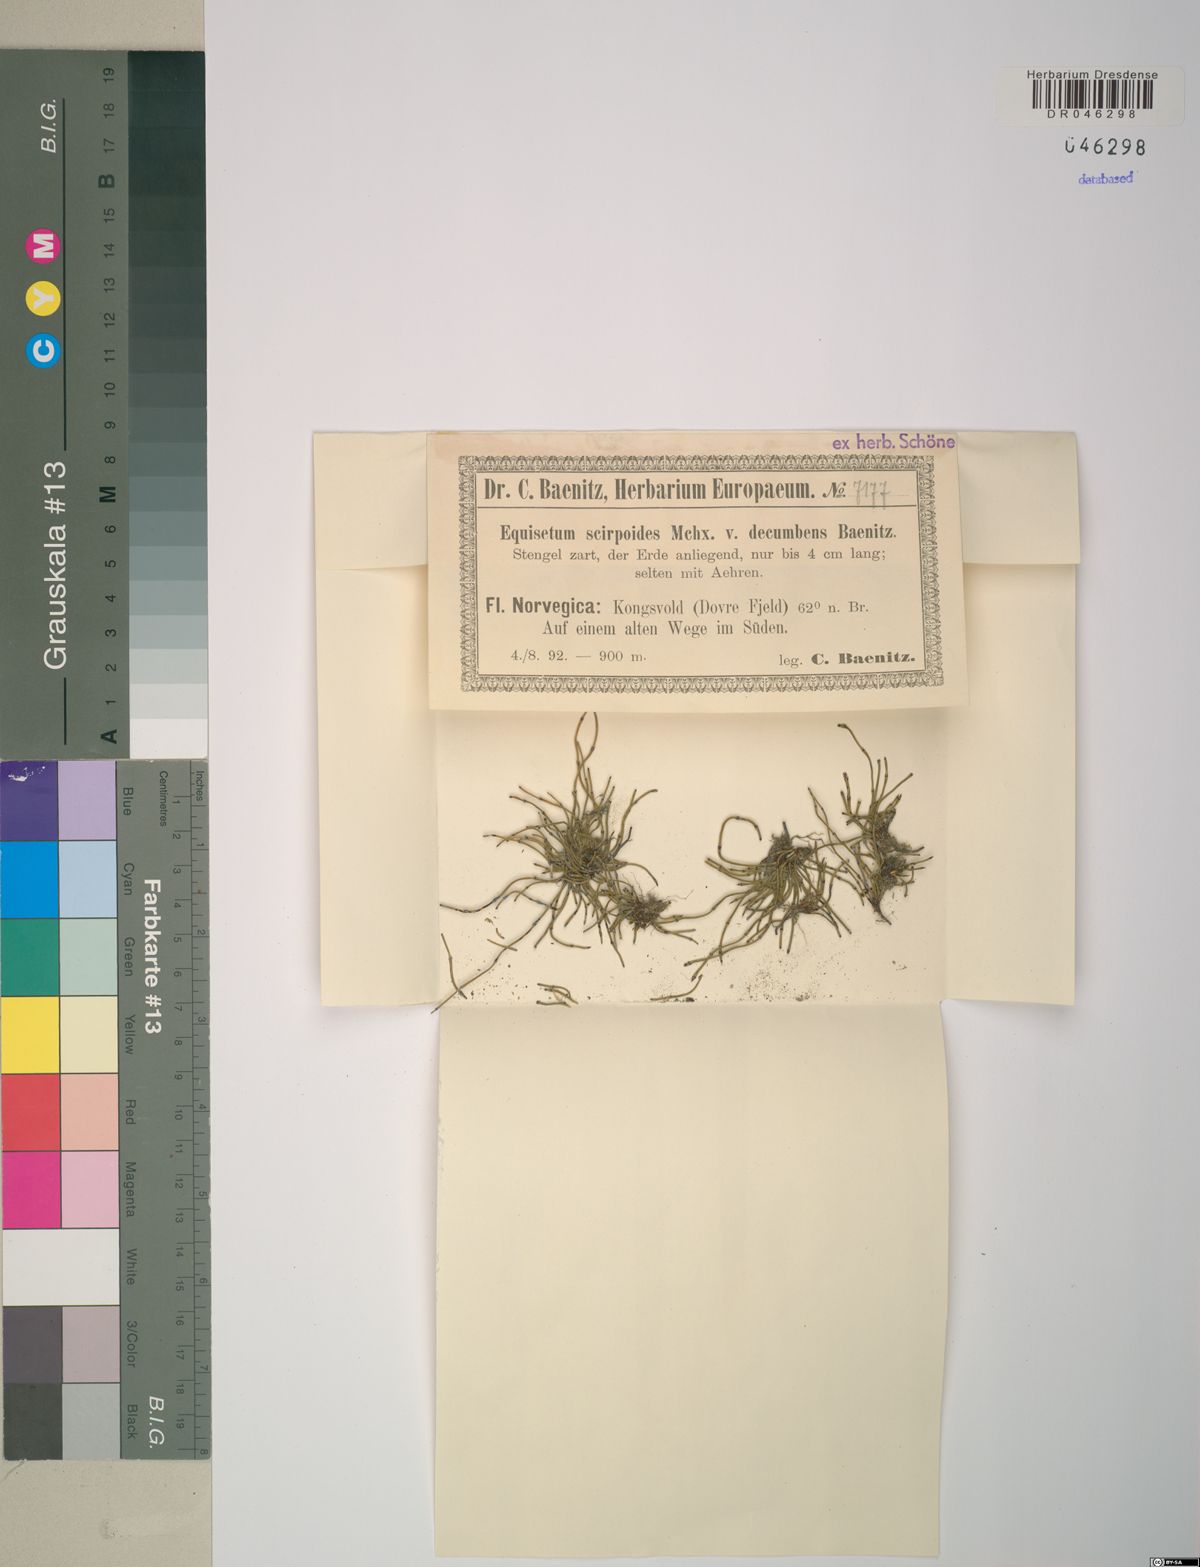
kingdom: Plantae
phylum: Tracheophyta
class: Polypodiopsida
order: Equisetales
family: Equisetaceae
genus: Equisetum
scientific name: Equisetum scirpoides
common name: Delicate horsetail
